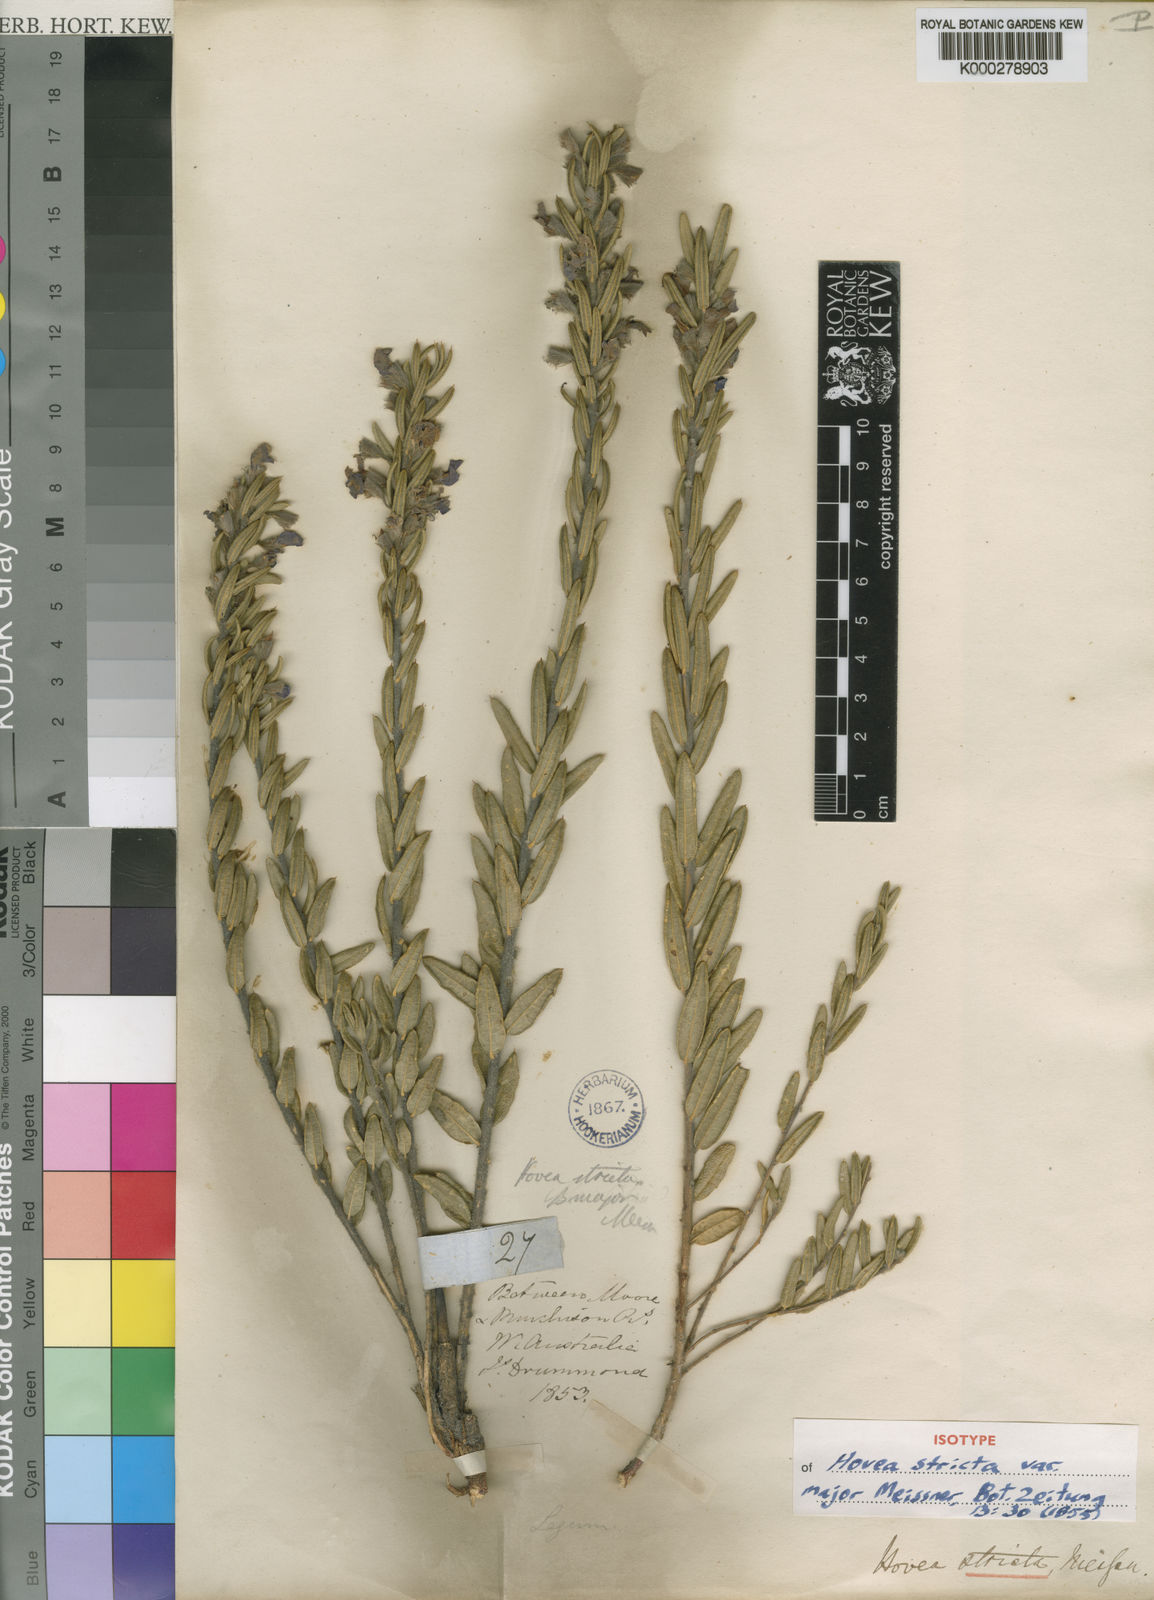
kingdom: Plantae
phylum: Tracheophyta
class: Magnoliopsida
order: Fabales
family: Fabaceae
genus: Hovea
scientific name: Hovea stricta
